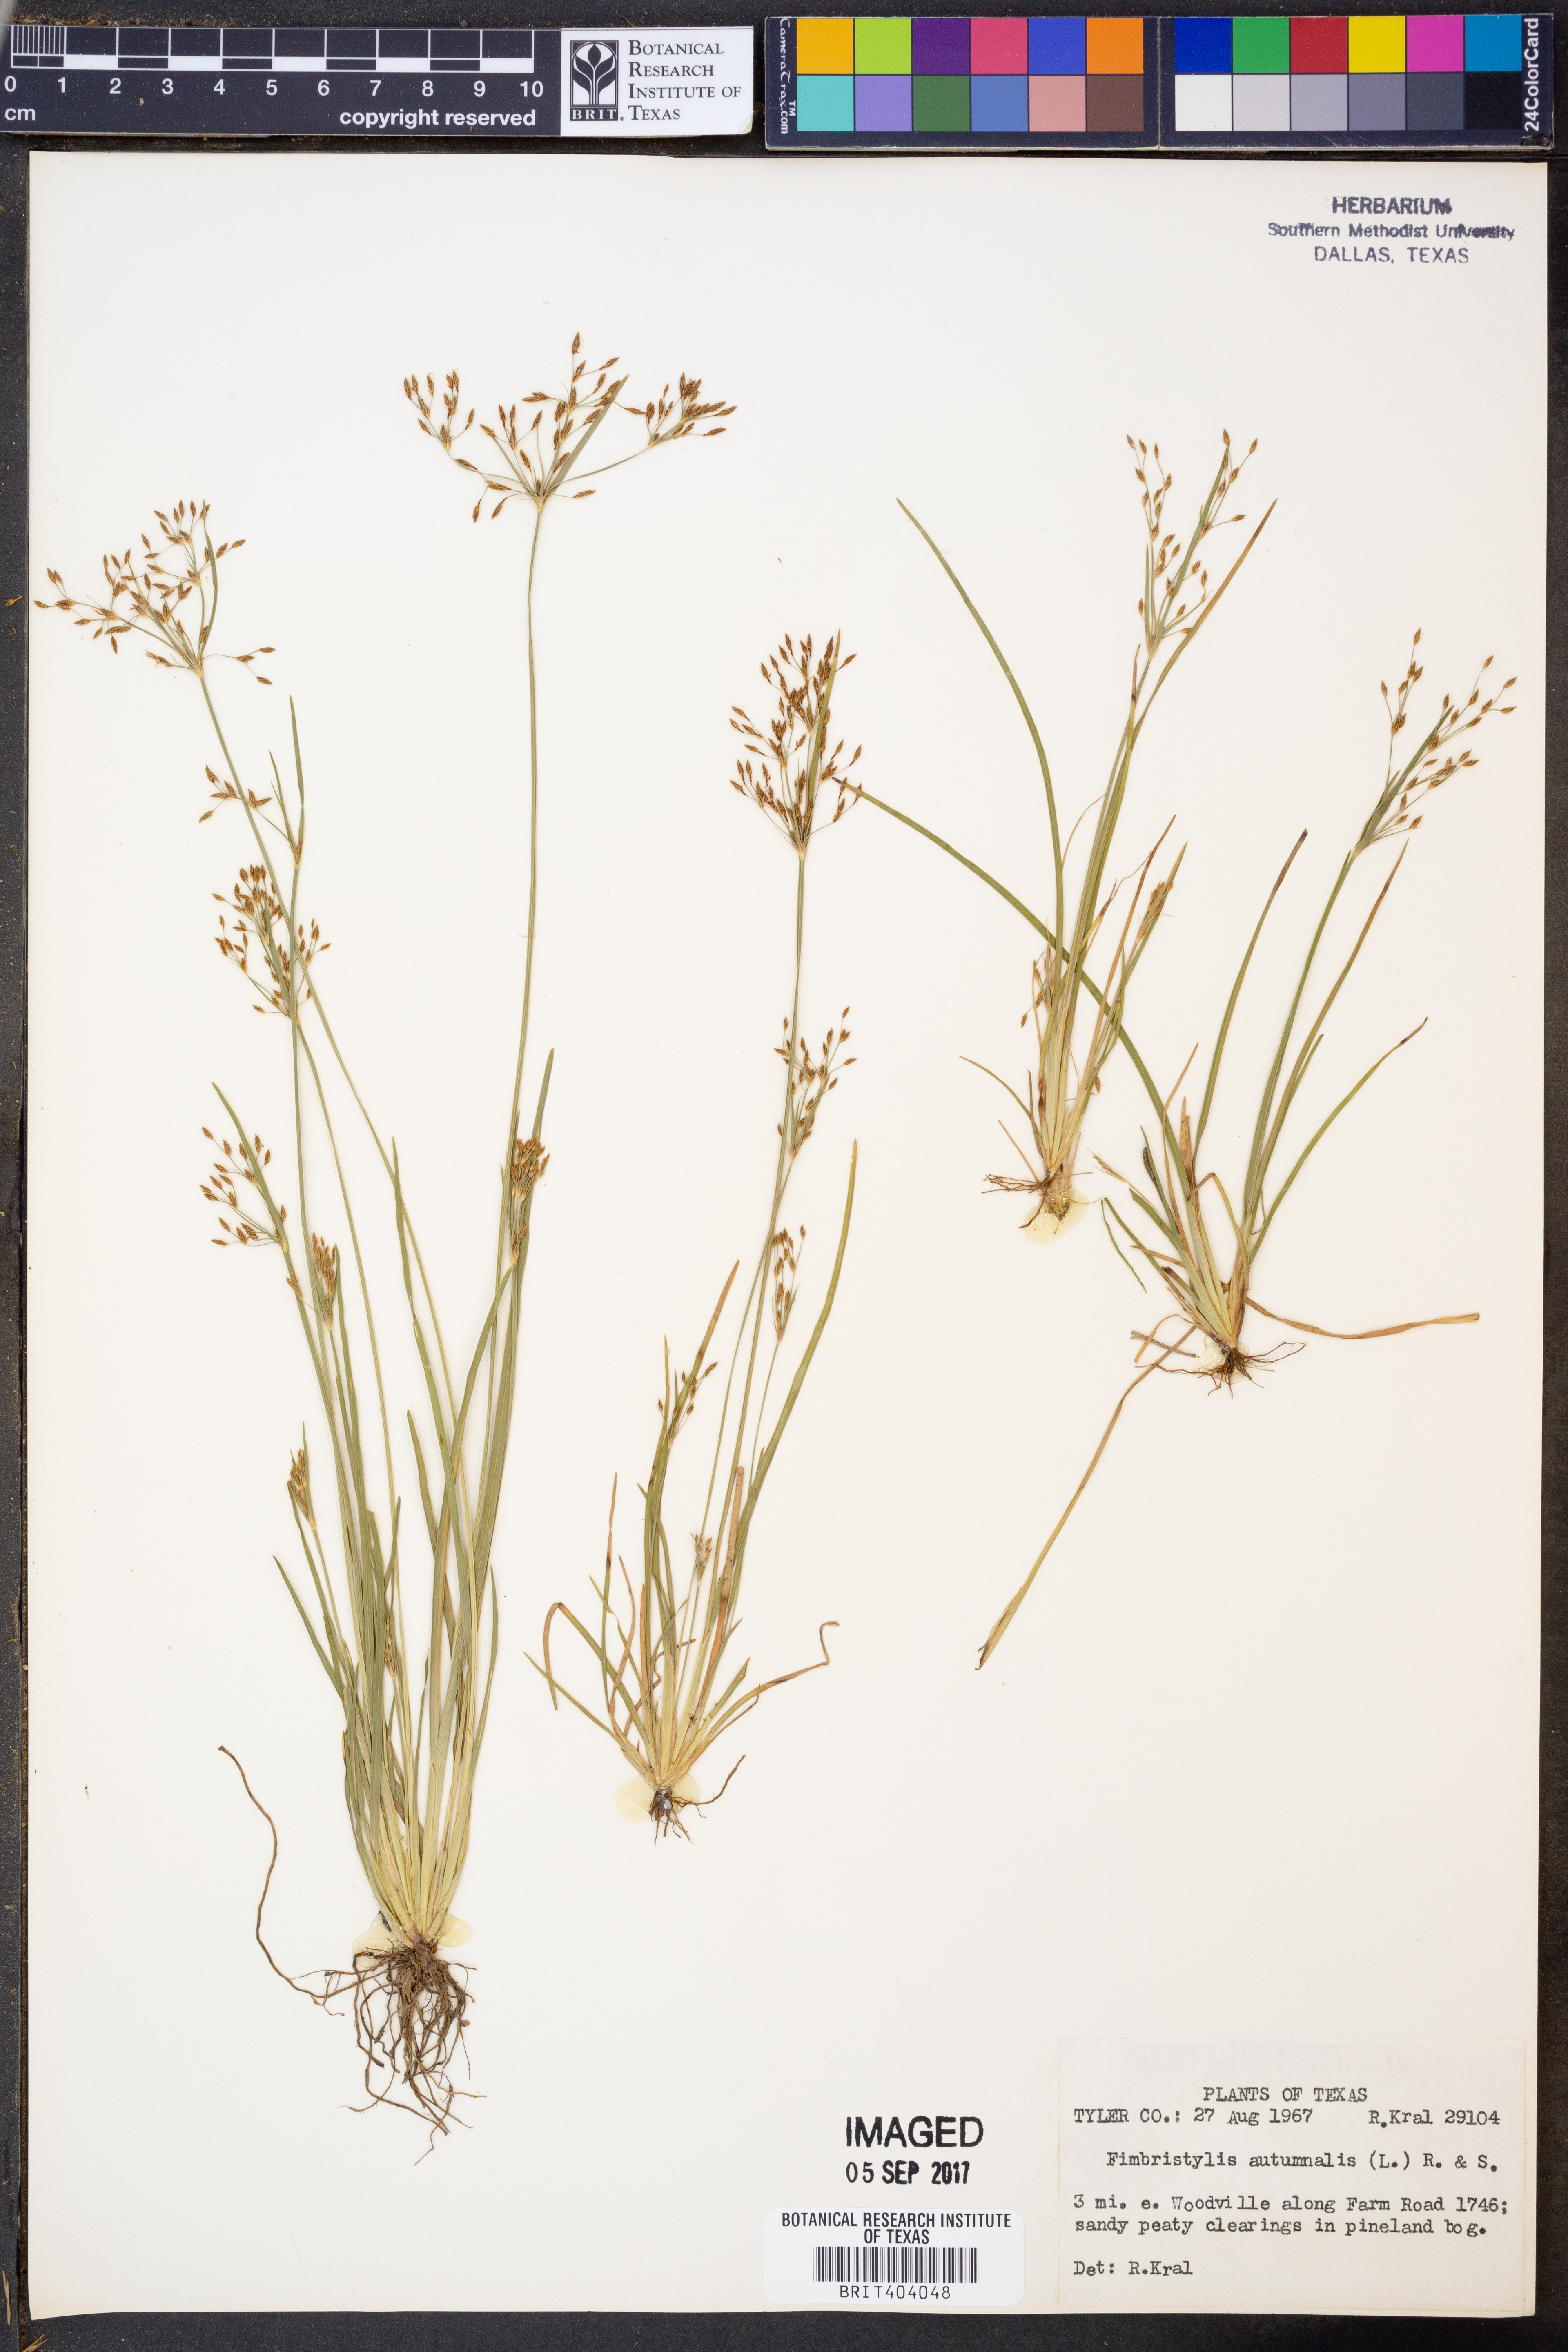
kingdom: Plantae
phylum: Tracheophyta
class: Liliopsida
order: Poales
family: Cyperaceae
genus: Fimbristylis
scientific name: Fimbristylis autumnalis
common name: Slender fimbristylis
